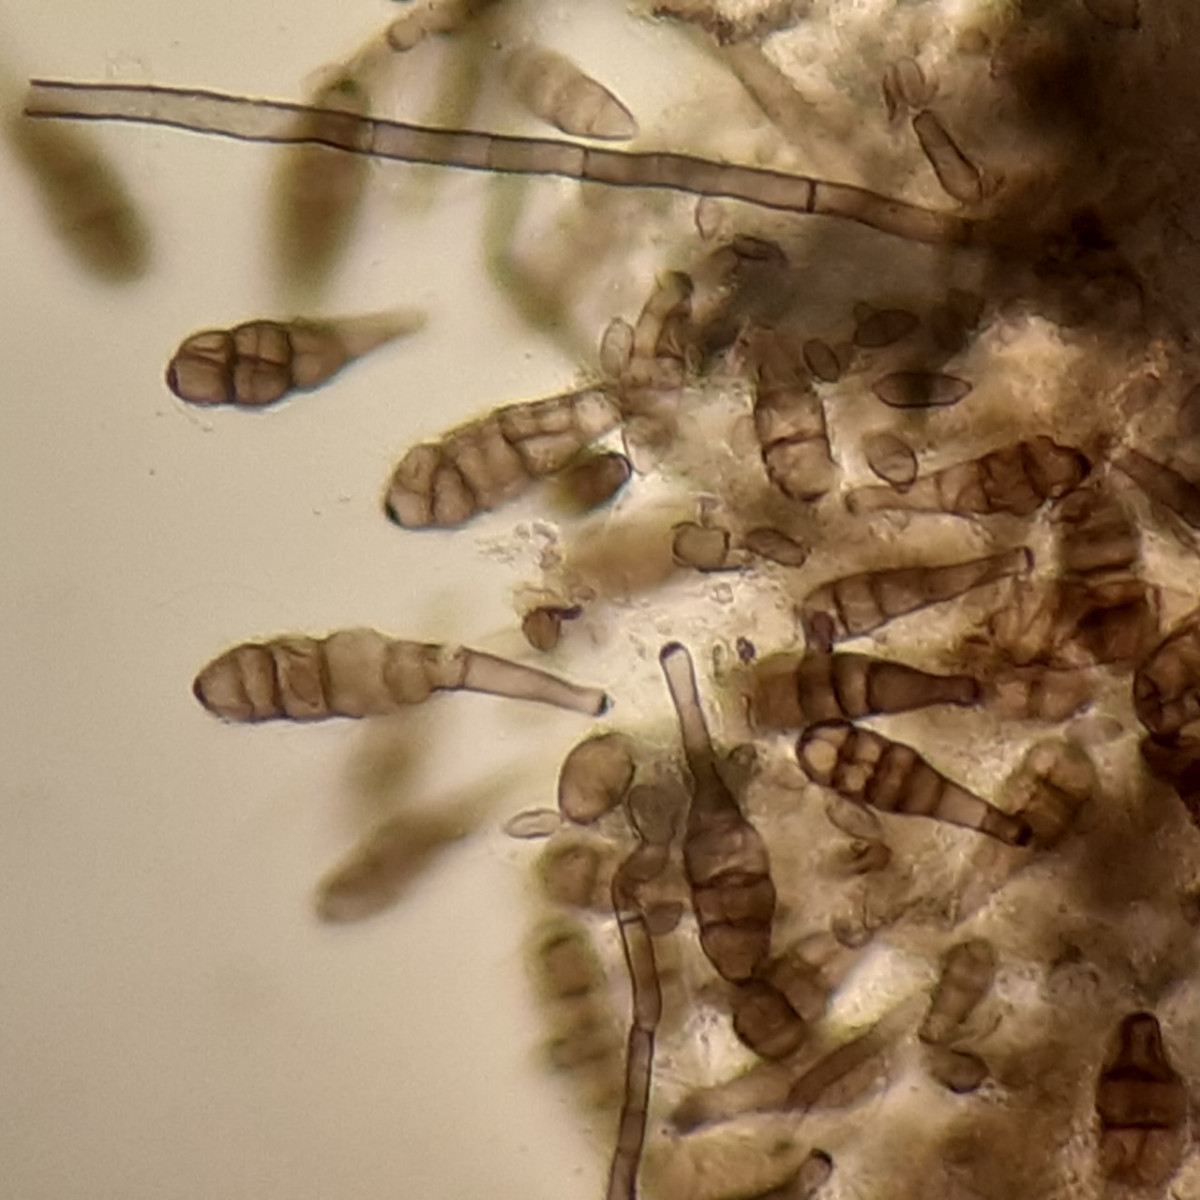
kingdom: Fungi
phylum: Ascomycota
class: Dothideomycetes
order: Pleosporales
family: Pleosporaceae
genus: Alternaria
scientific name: Alternaria
